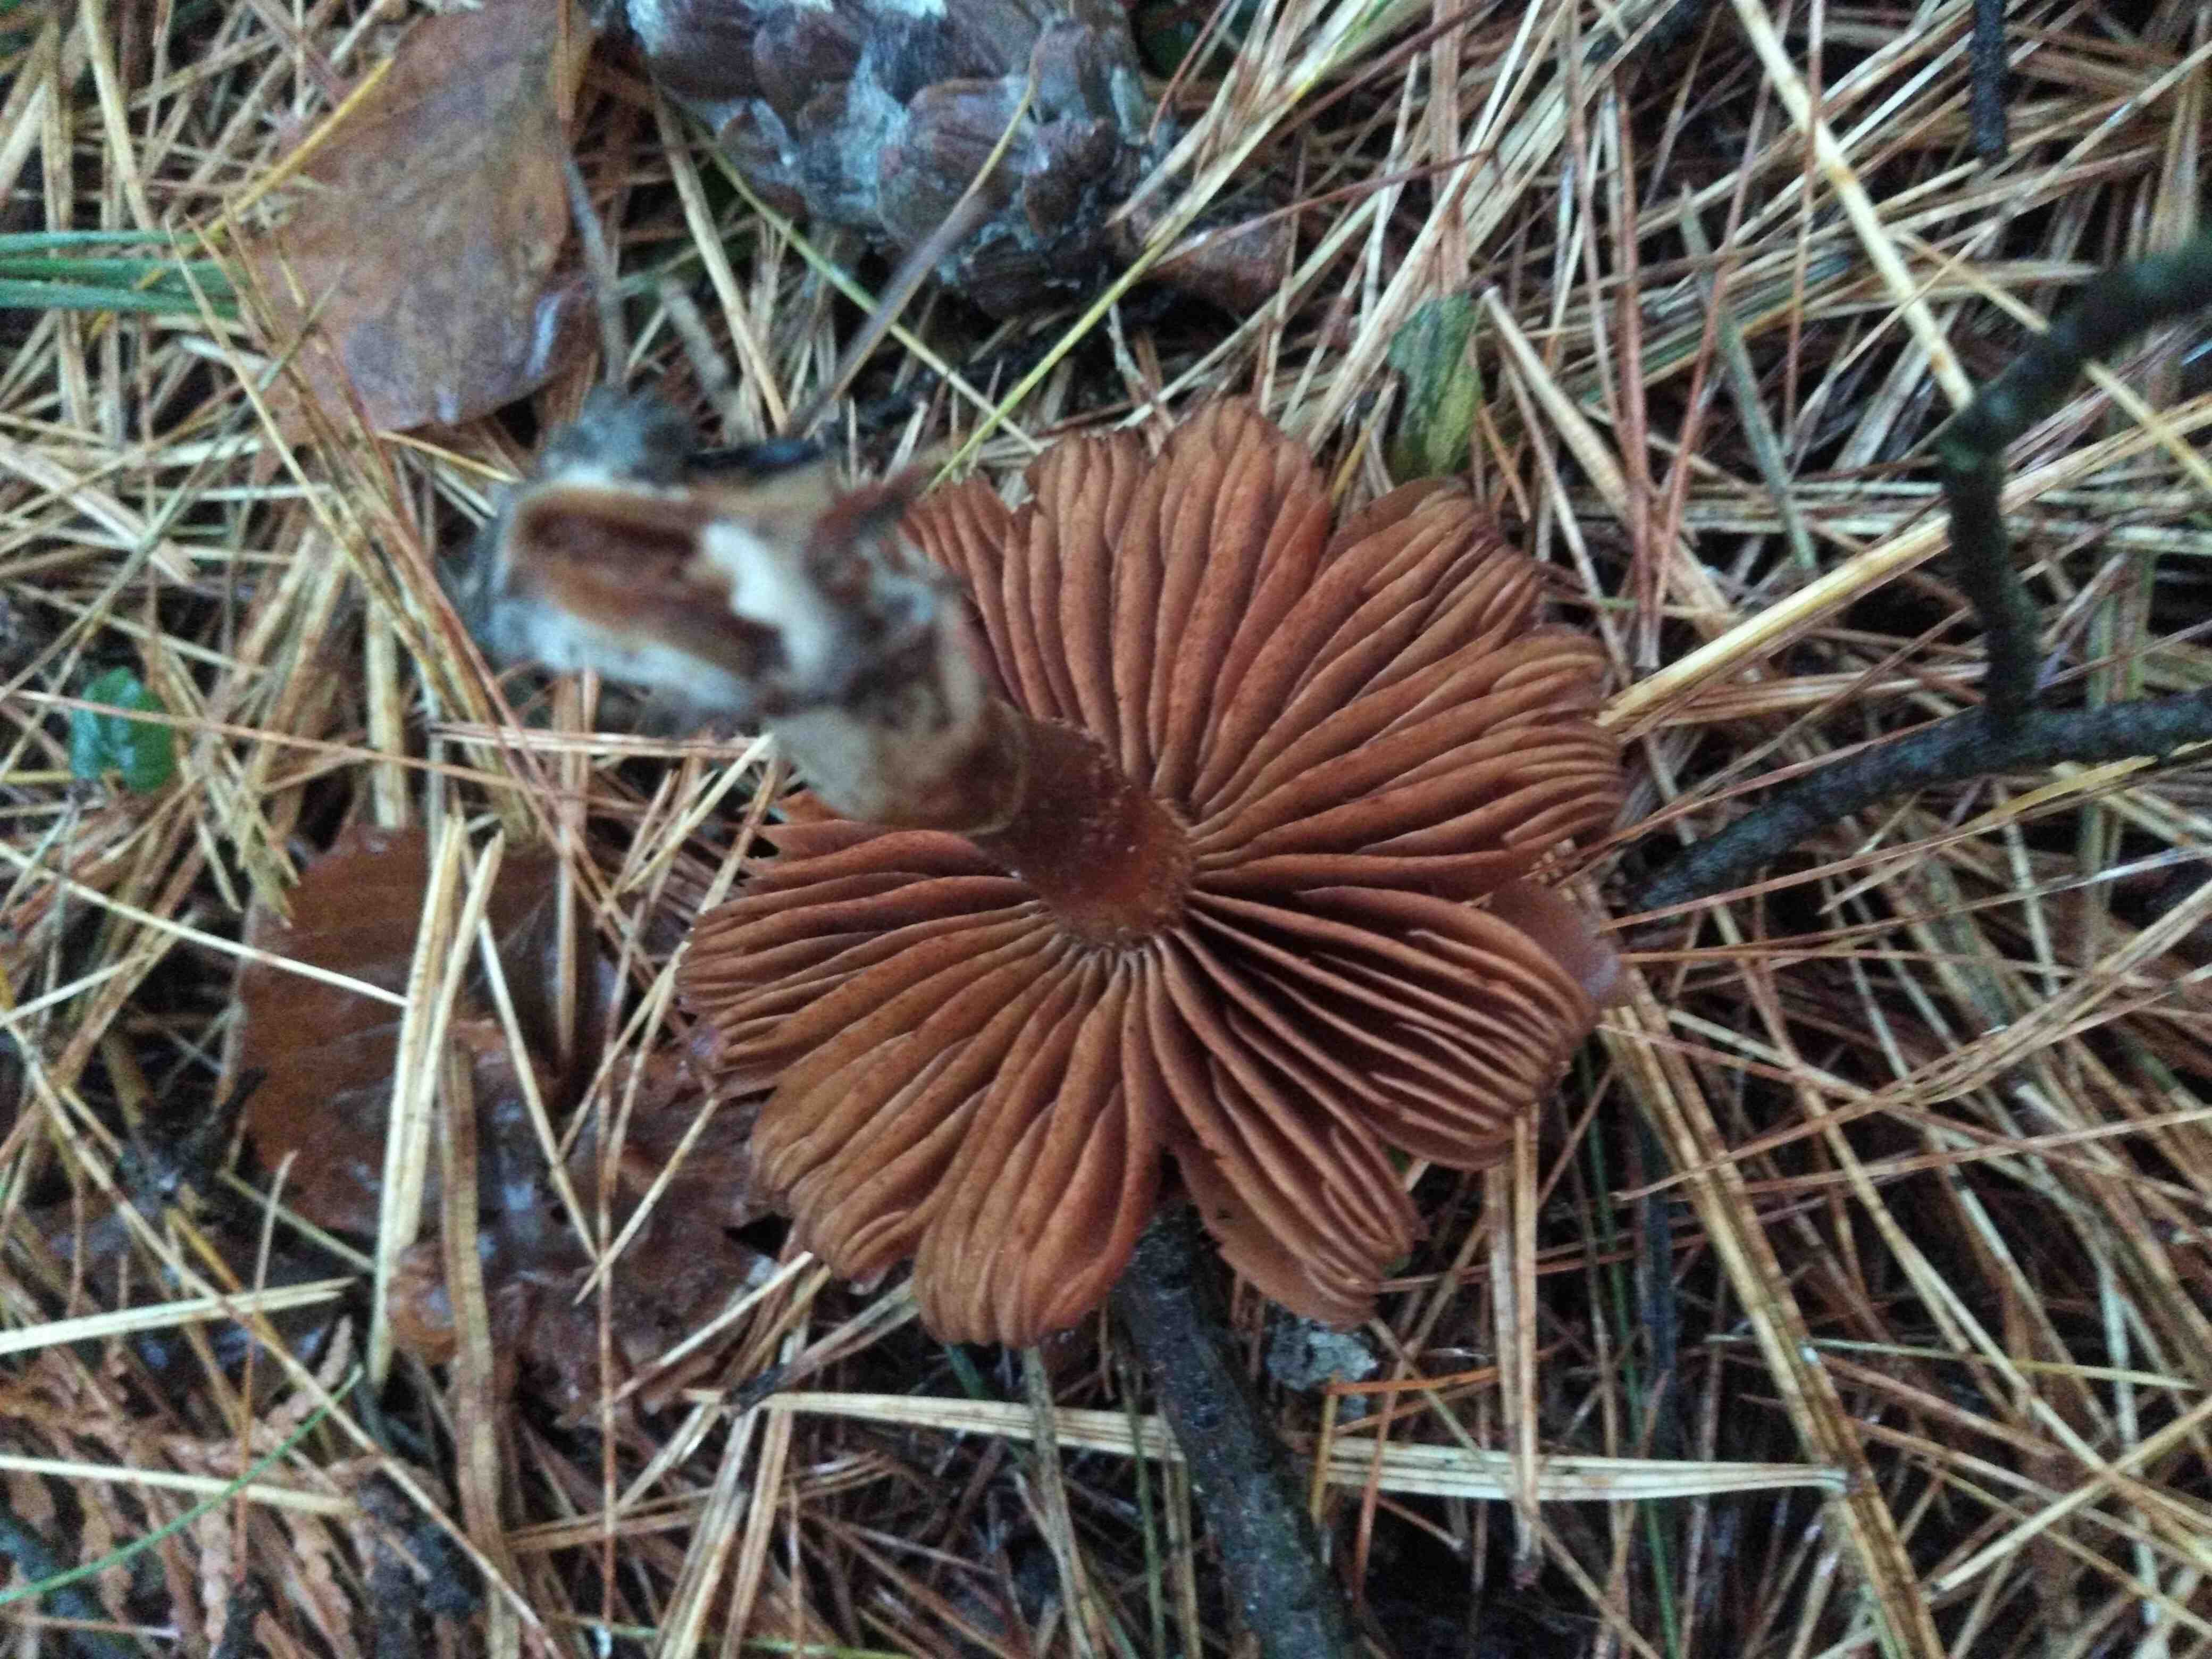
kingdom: Fungi
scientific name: Fungi
